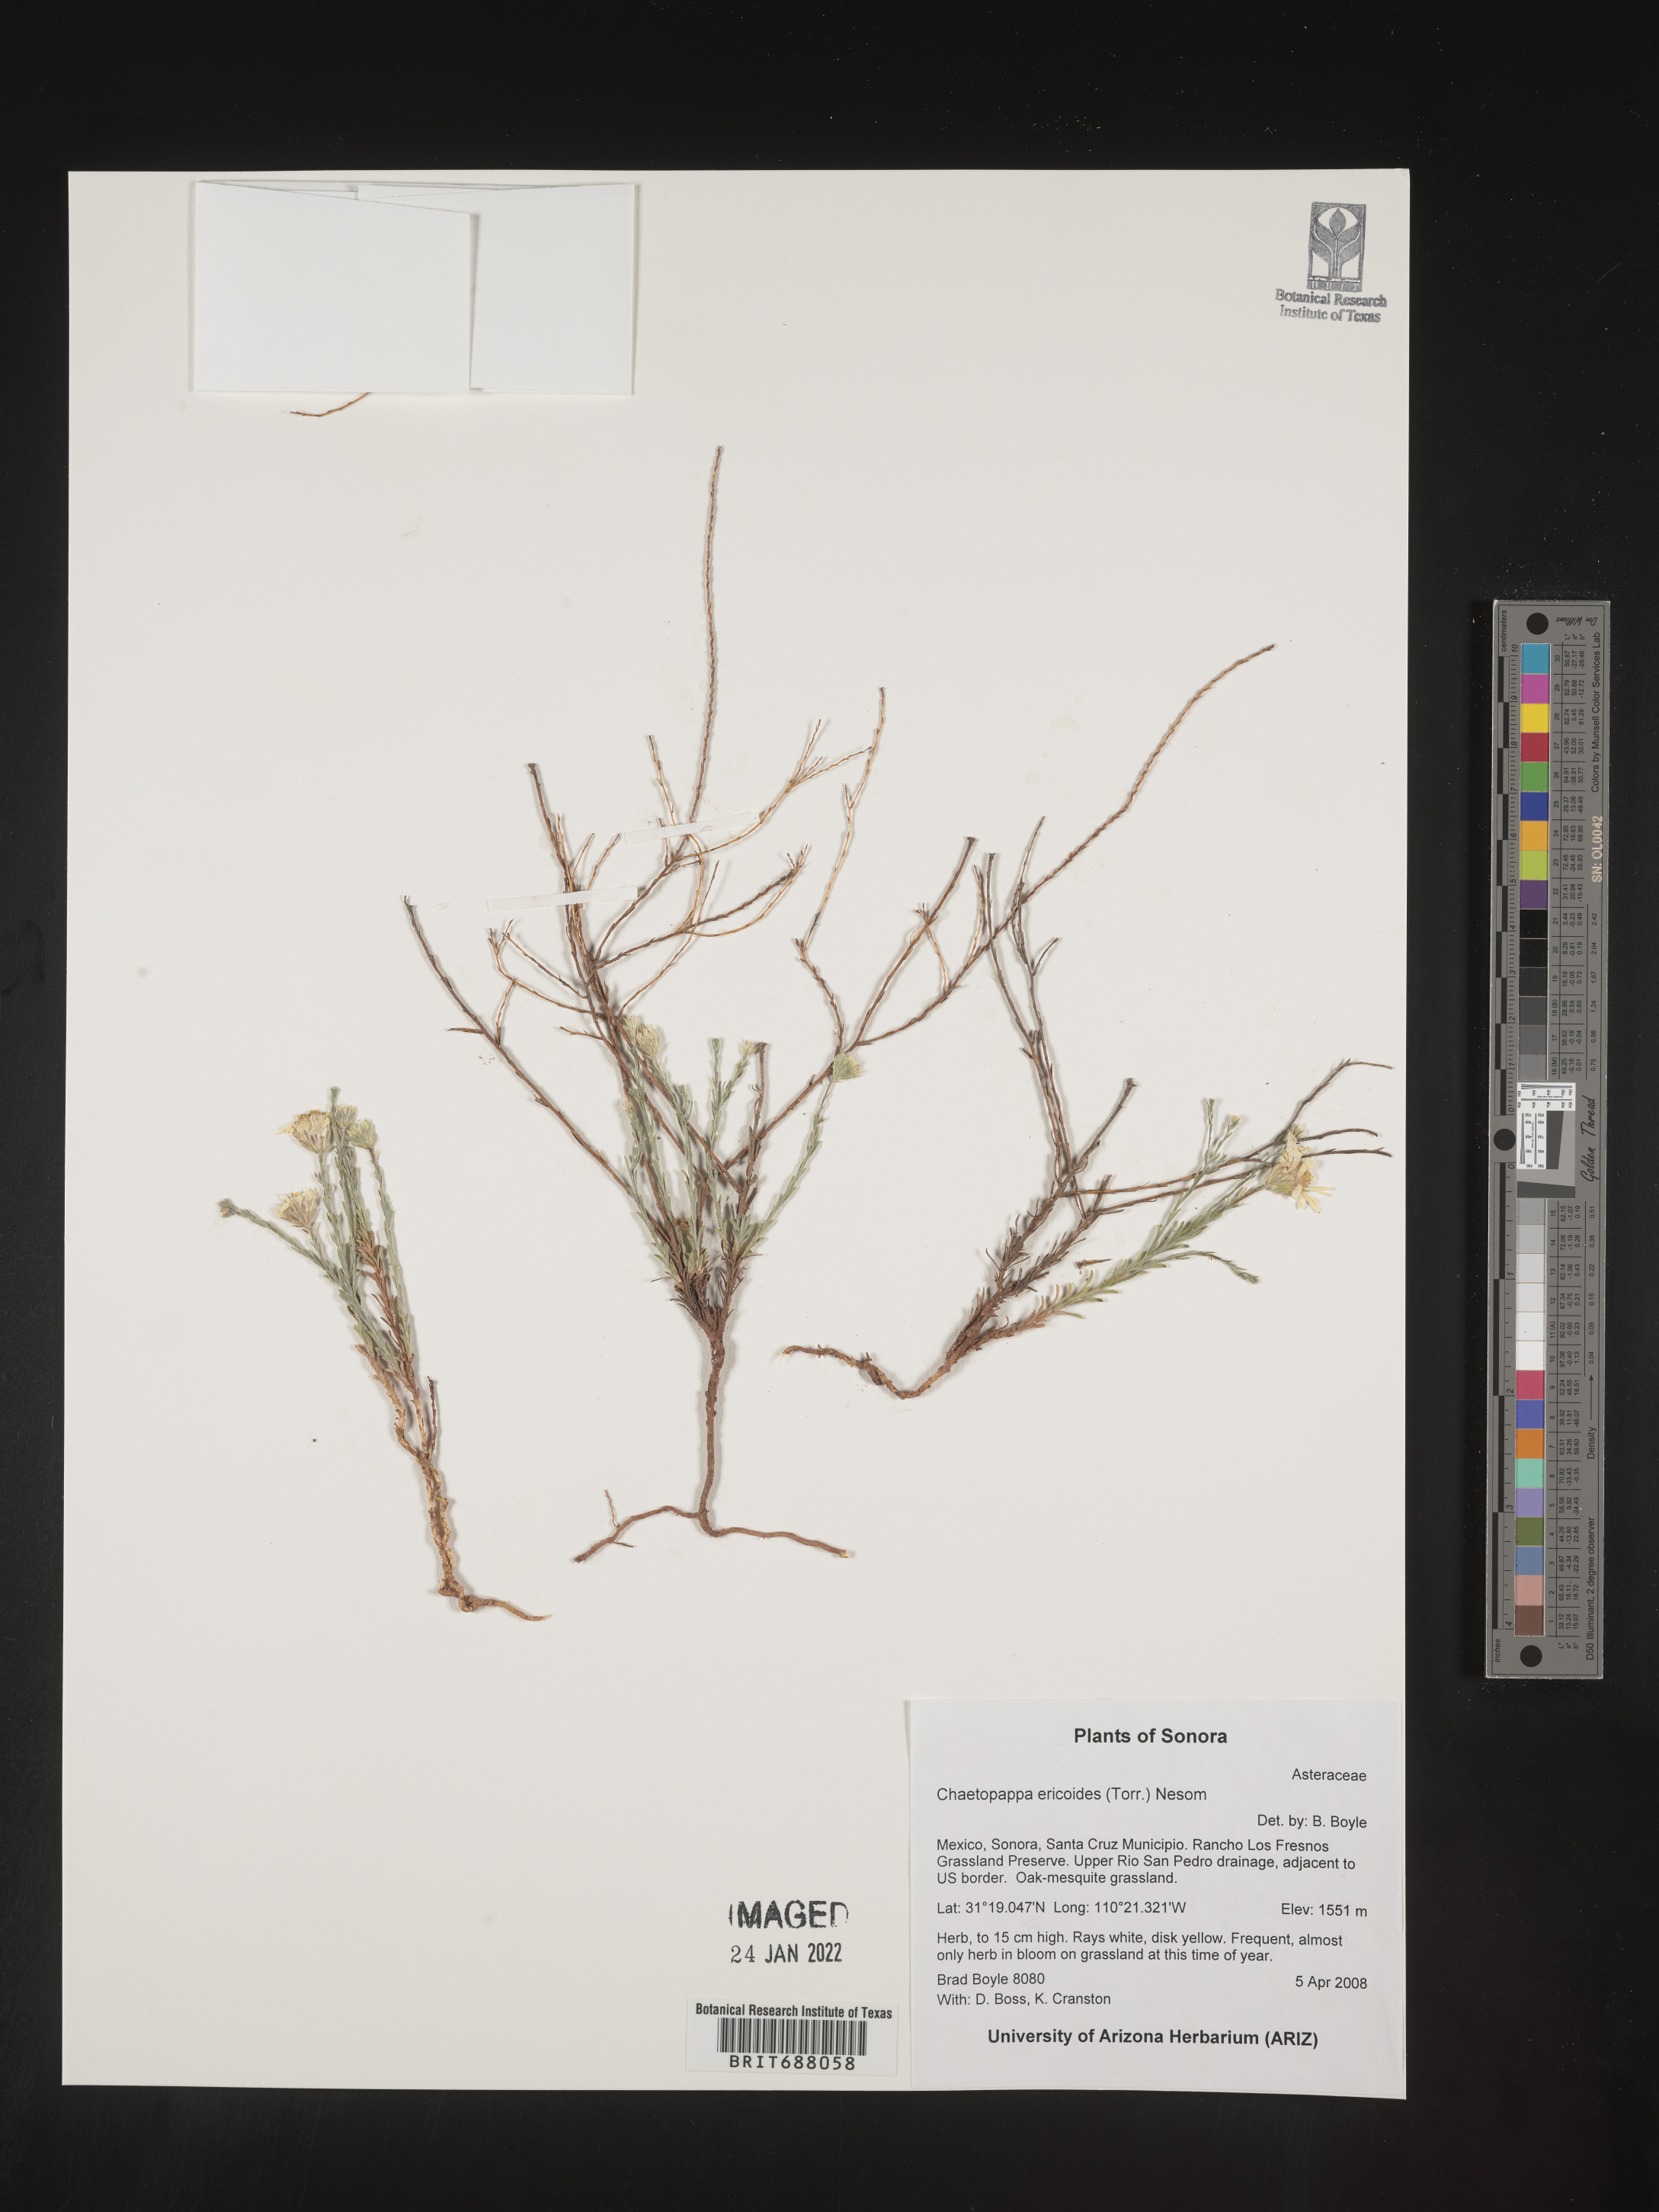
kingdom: Plantae
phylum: Tracheophyta
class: Magnoliopsida
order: Asterales
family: Asteraceae
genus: Chaetopappa
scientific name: Chaetopappa
